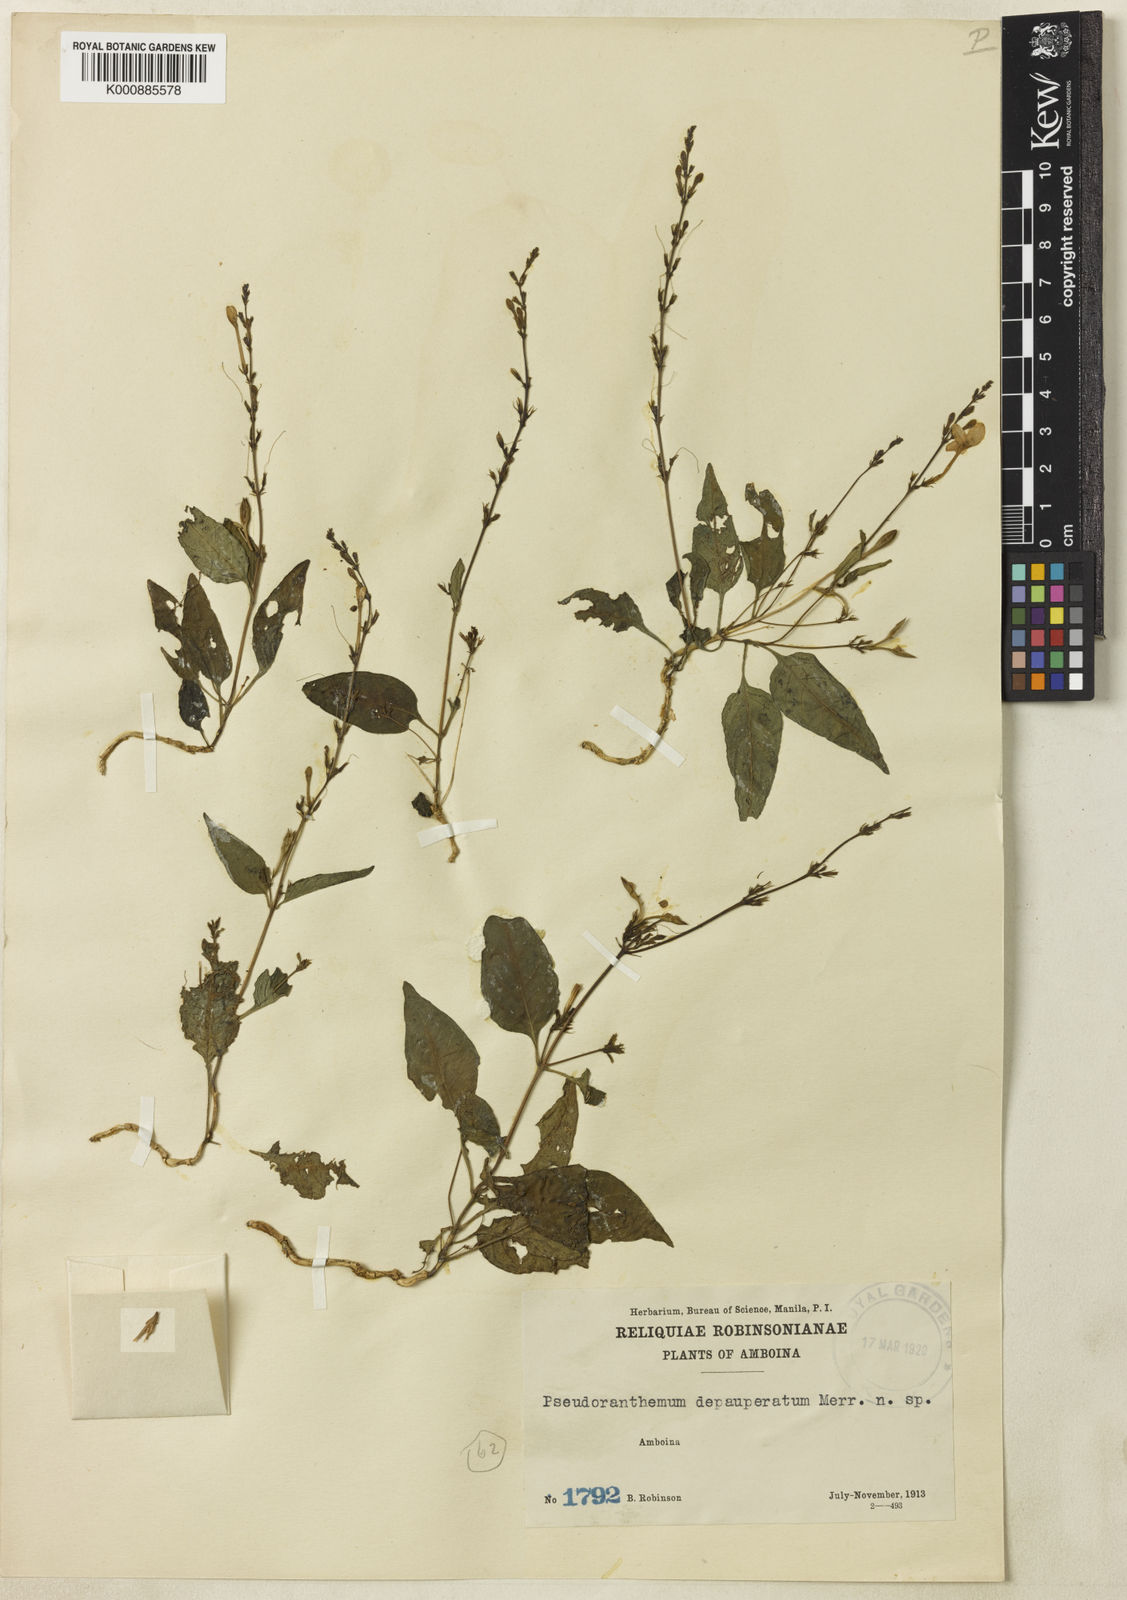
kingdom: Plantae
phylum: Tracheophyta
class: Magnoliopsida
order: Lamiales
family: Acanthaceae
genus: Pseuderanthemum
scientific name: Pseuderanthemum diantherum
